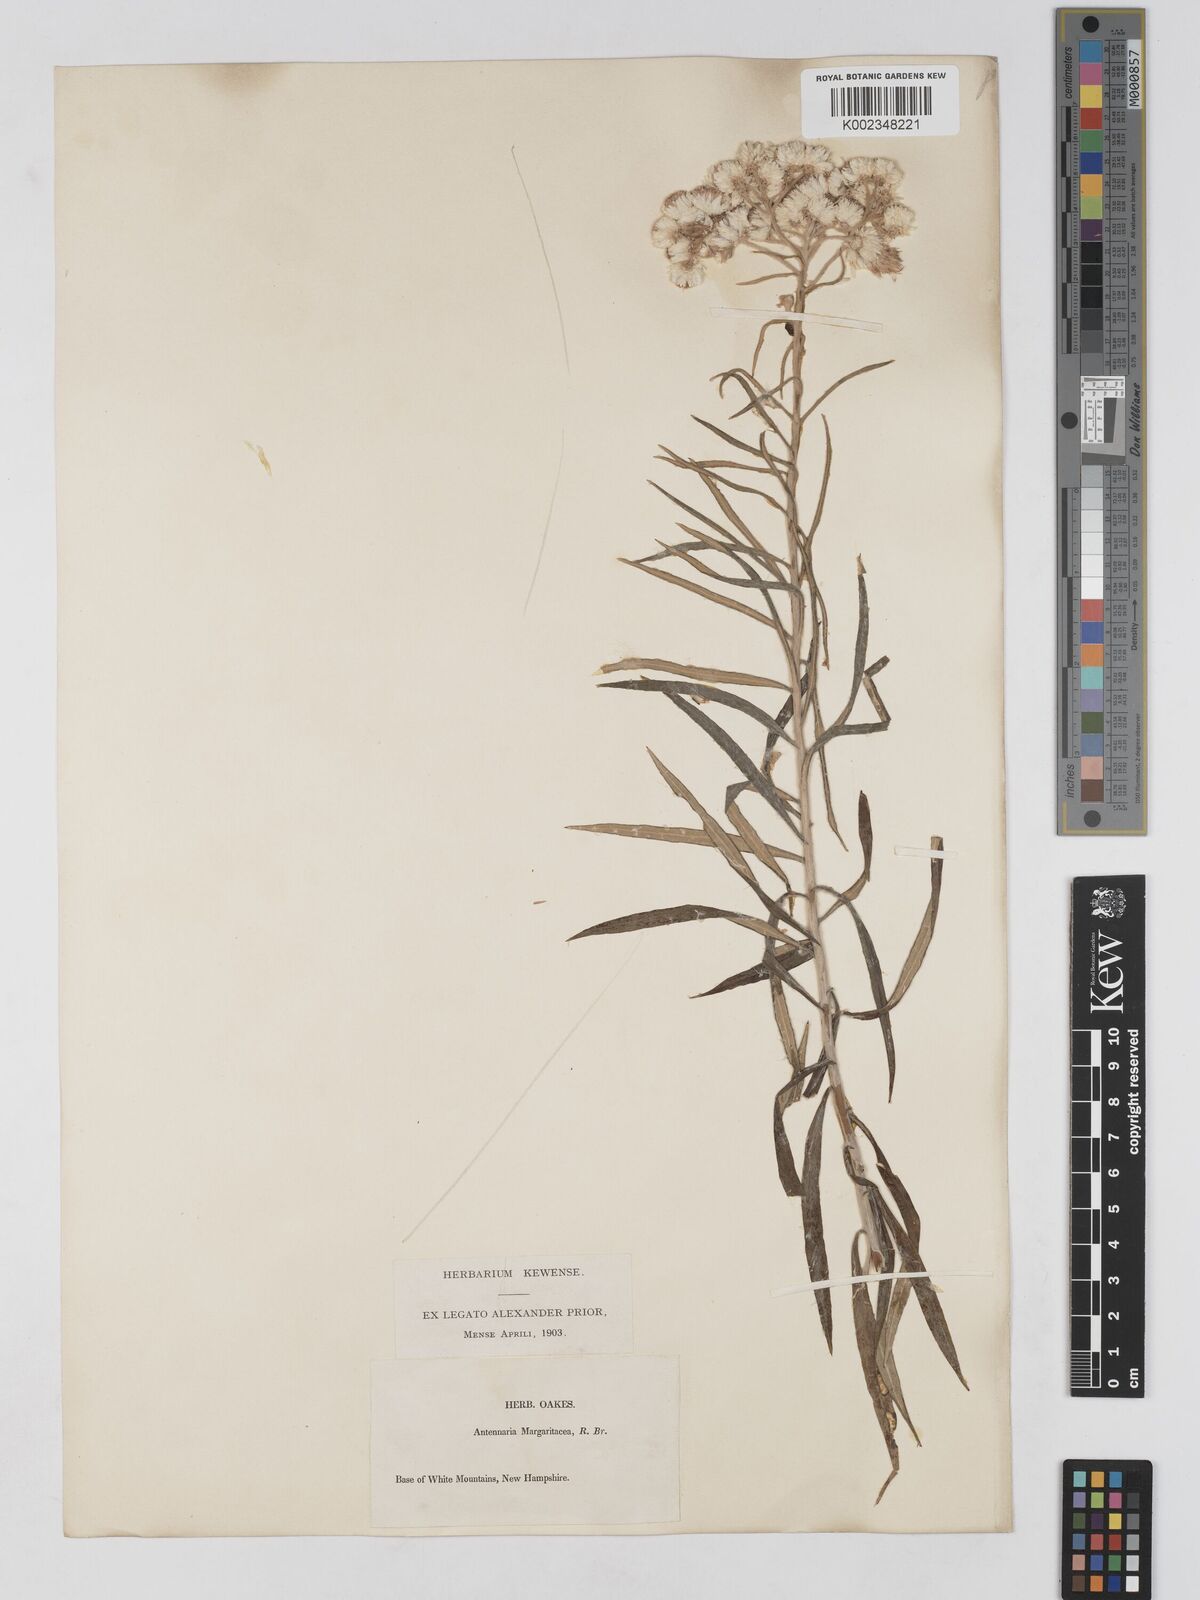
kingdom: Plantae
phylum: Tracheophyta
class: Magnoliopsida
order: Asterales
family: Asteraceae
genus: Anaphalis
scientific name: Anaphalis margaritacea
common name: Pearly everlasting
